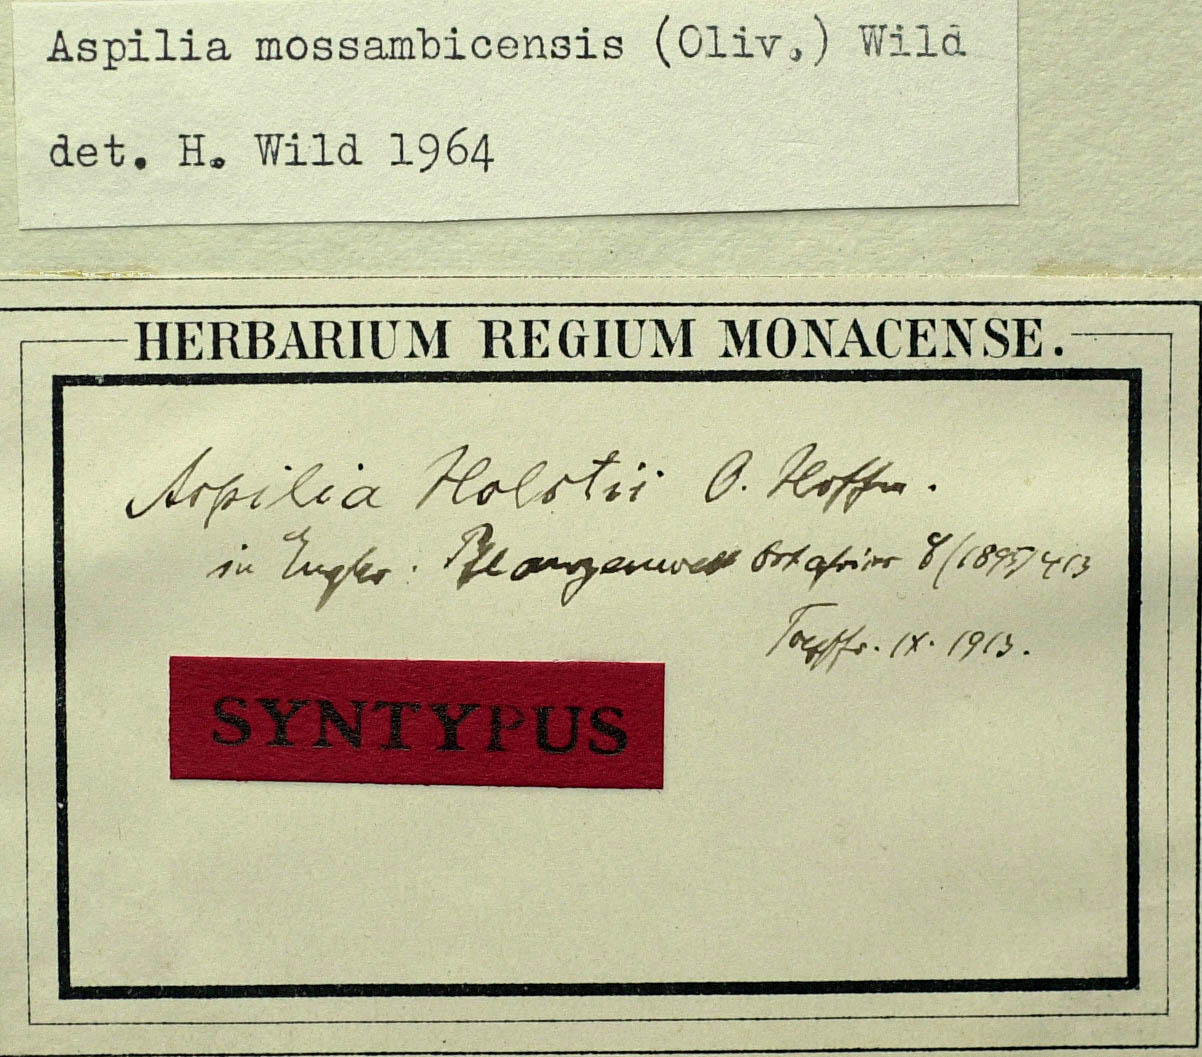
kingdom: Plantae
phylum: Tracheophyta
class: Magnoliopsida
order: Asterales
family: Asteraceae
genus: Aspilia
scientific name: Aspilia mossambicensis
